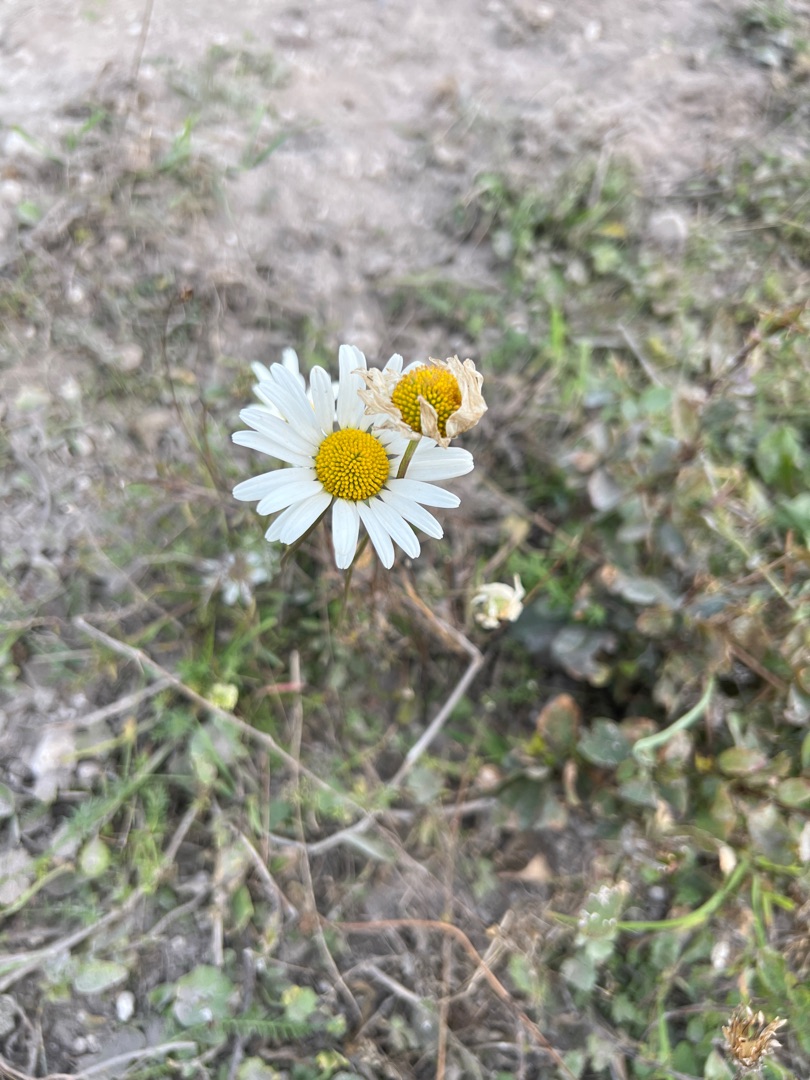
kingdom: Plantae
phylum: Tracheophyta
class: Magnoliopsida
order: Asterales
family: Asteraceae
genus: Leucanthemum
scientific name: Leucanthemum vulgare
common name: Hvid okseøje
